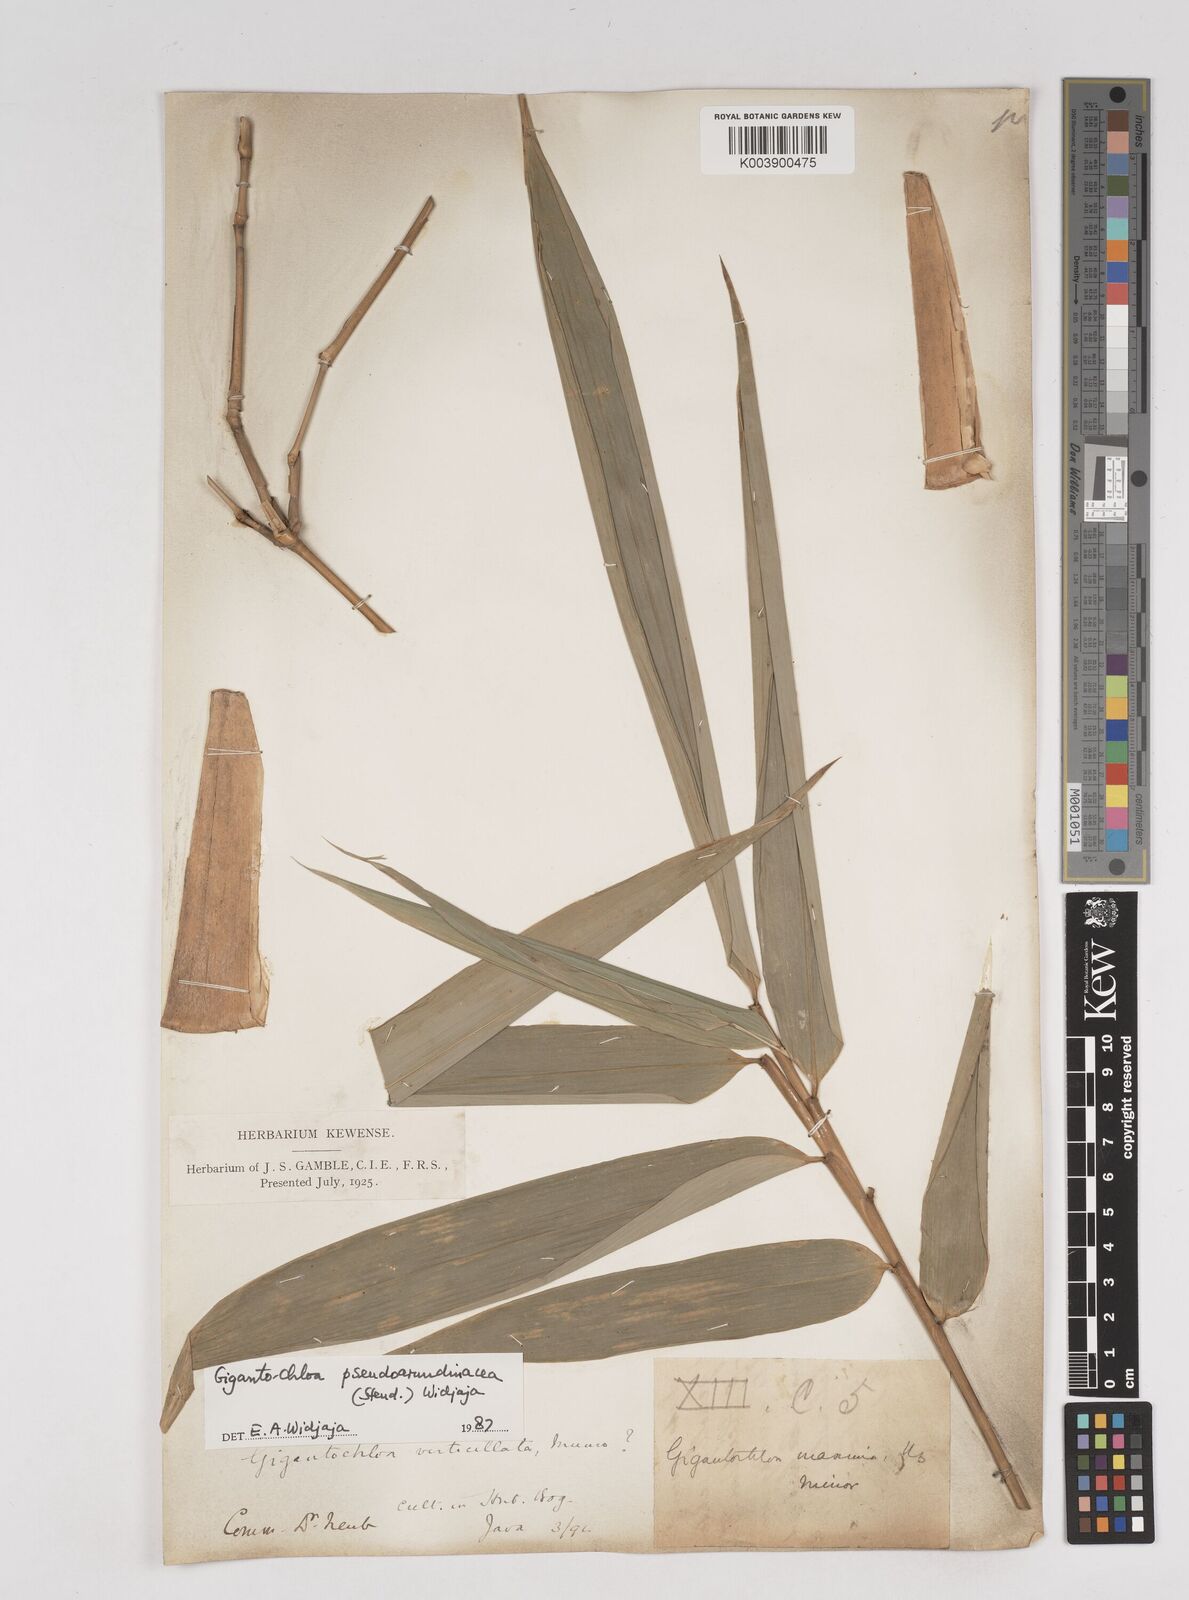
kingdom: Plantae
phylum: Tracheophyta
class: Liliopsida
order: Poales
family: Poaceae
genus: Gigantochloa
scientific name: Gigantochloa verticillata
